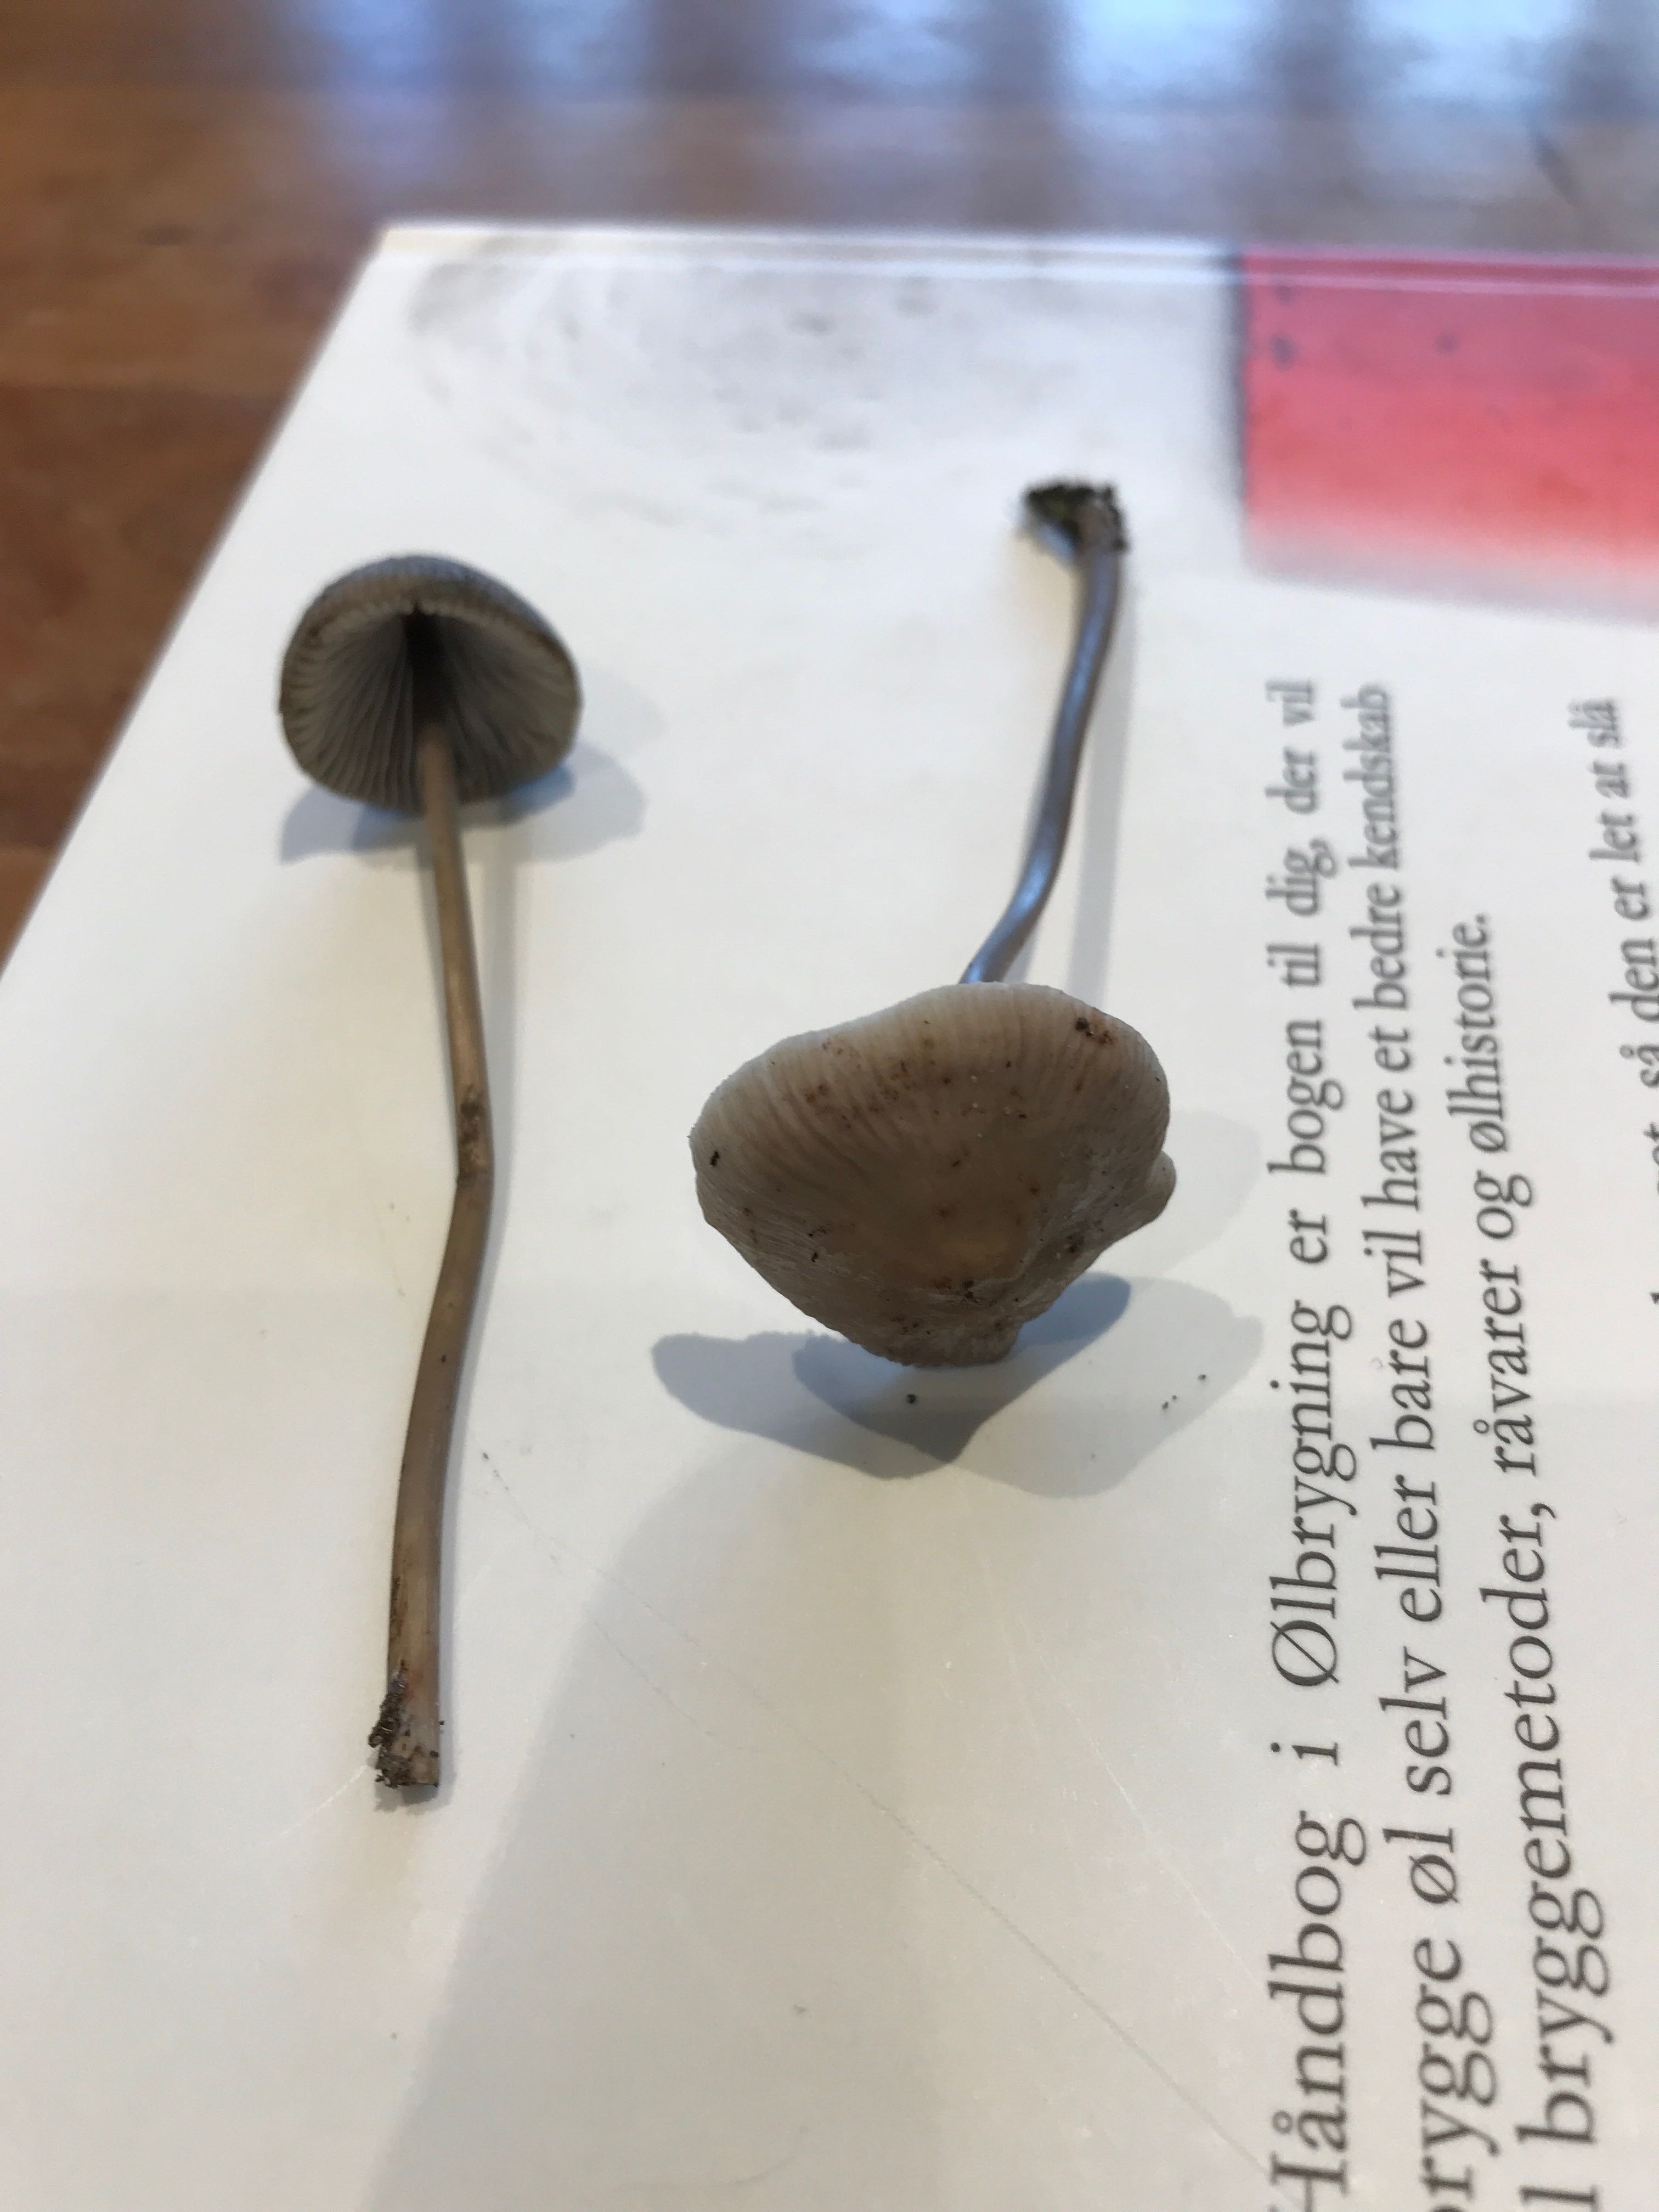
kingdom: Fungi
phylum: Basidiomycota
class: Agaricomycetes
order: Agaricales
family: Mycenaceae
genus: Mycena
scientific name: Mycena
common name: huesvamp
